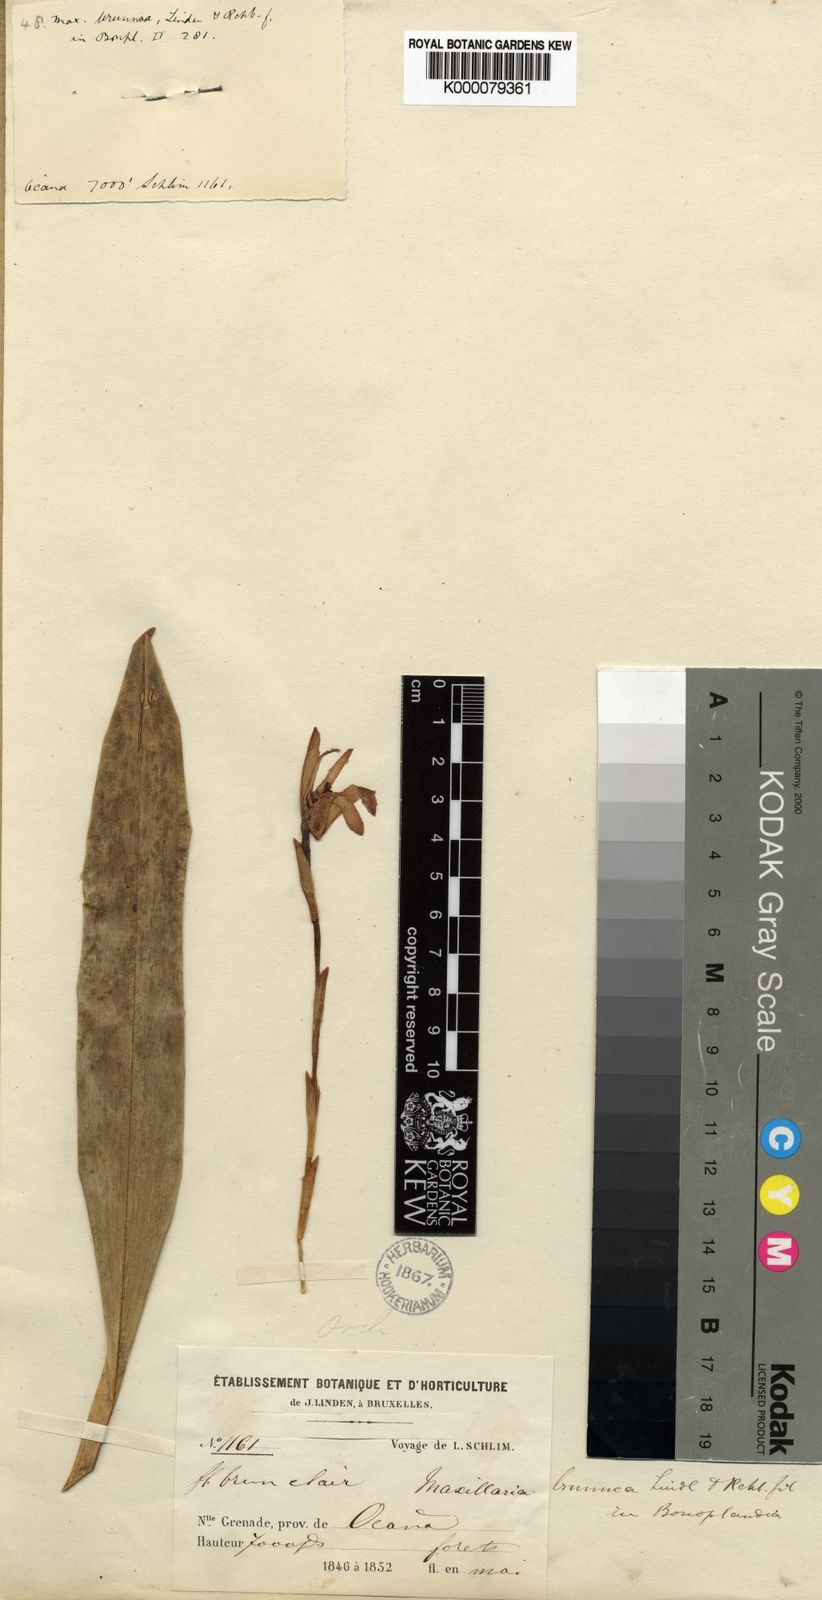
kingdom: Plantae
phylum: Tracheophyta
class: Liliopsida
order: Asparagales
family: Orchidaceae
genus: Maxillaria
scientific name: Maxillaria porrecta
